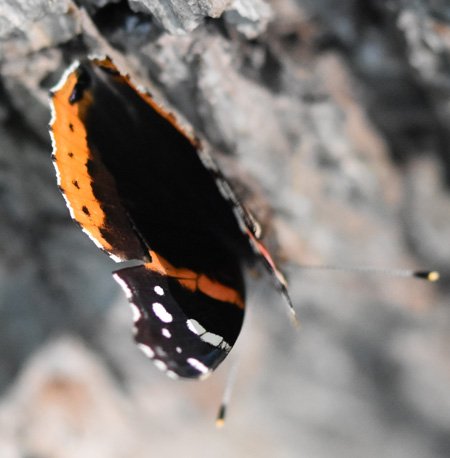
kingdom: Animalia
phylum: Arthropoda
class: Insecta
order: Lepidoptera
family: Nymphalidae
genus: Vanessa
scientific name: Vanessa atalanta
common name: Red Admiral
